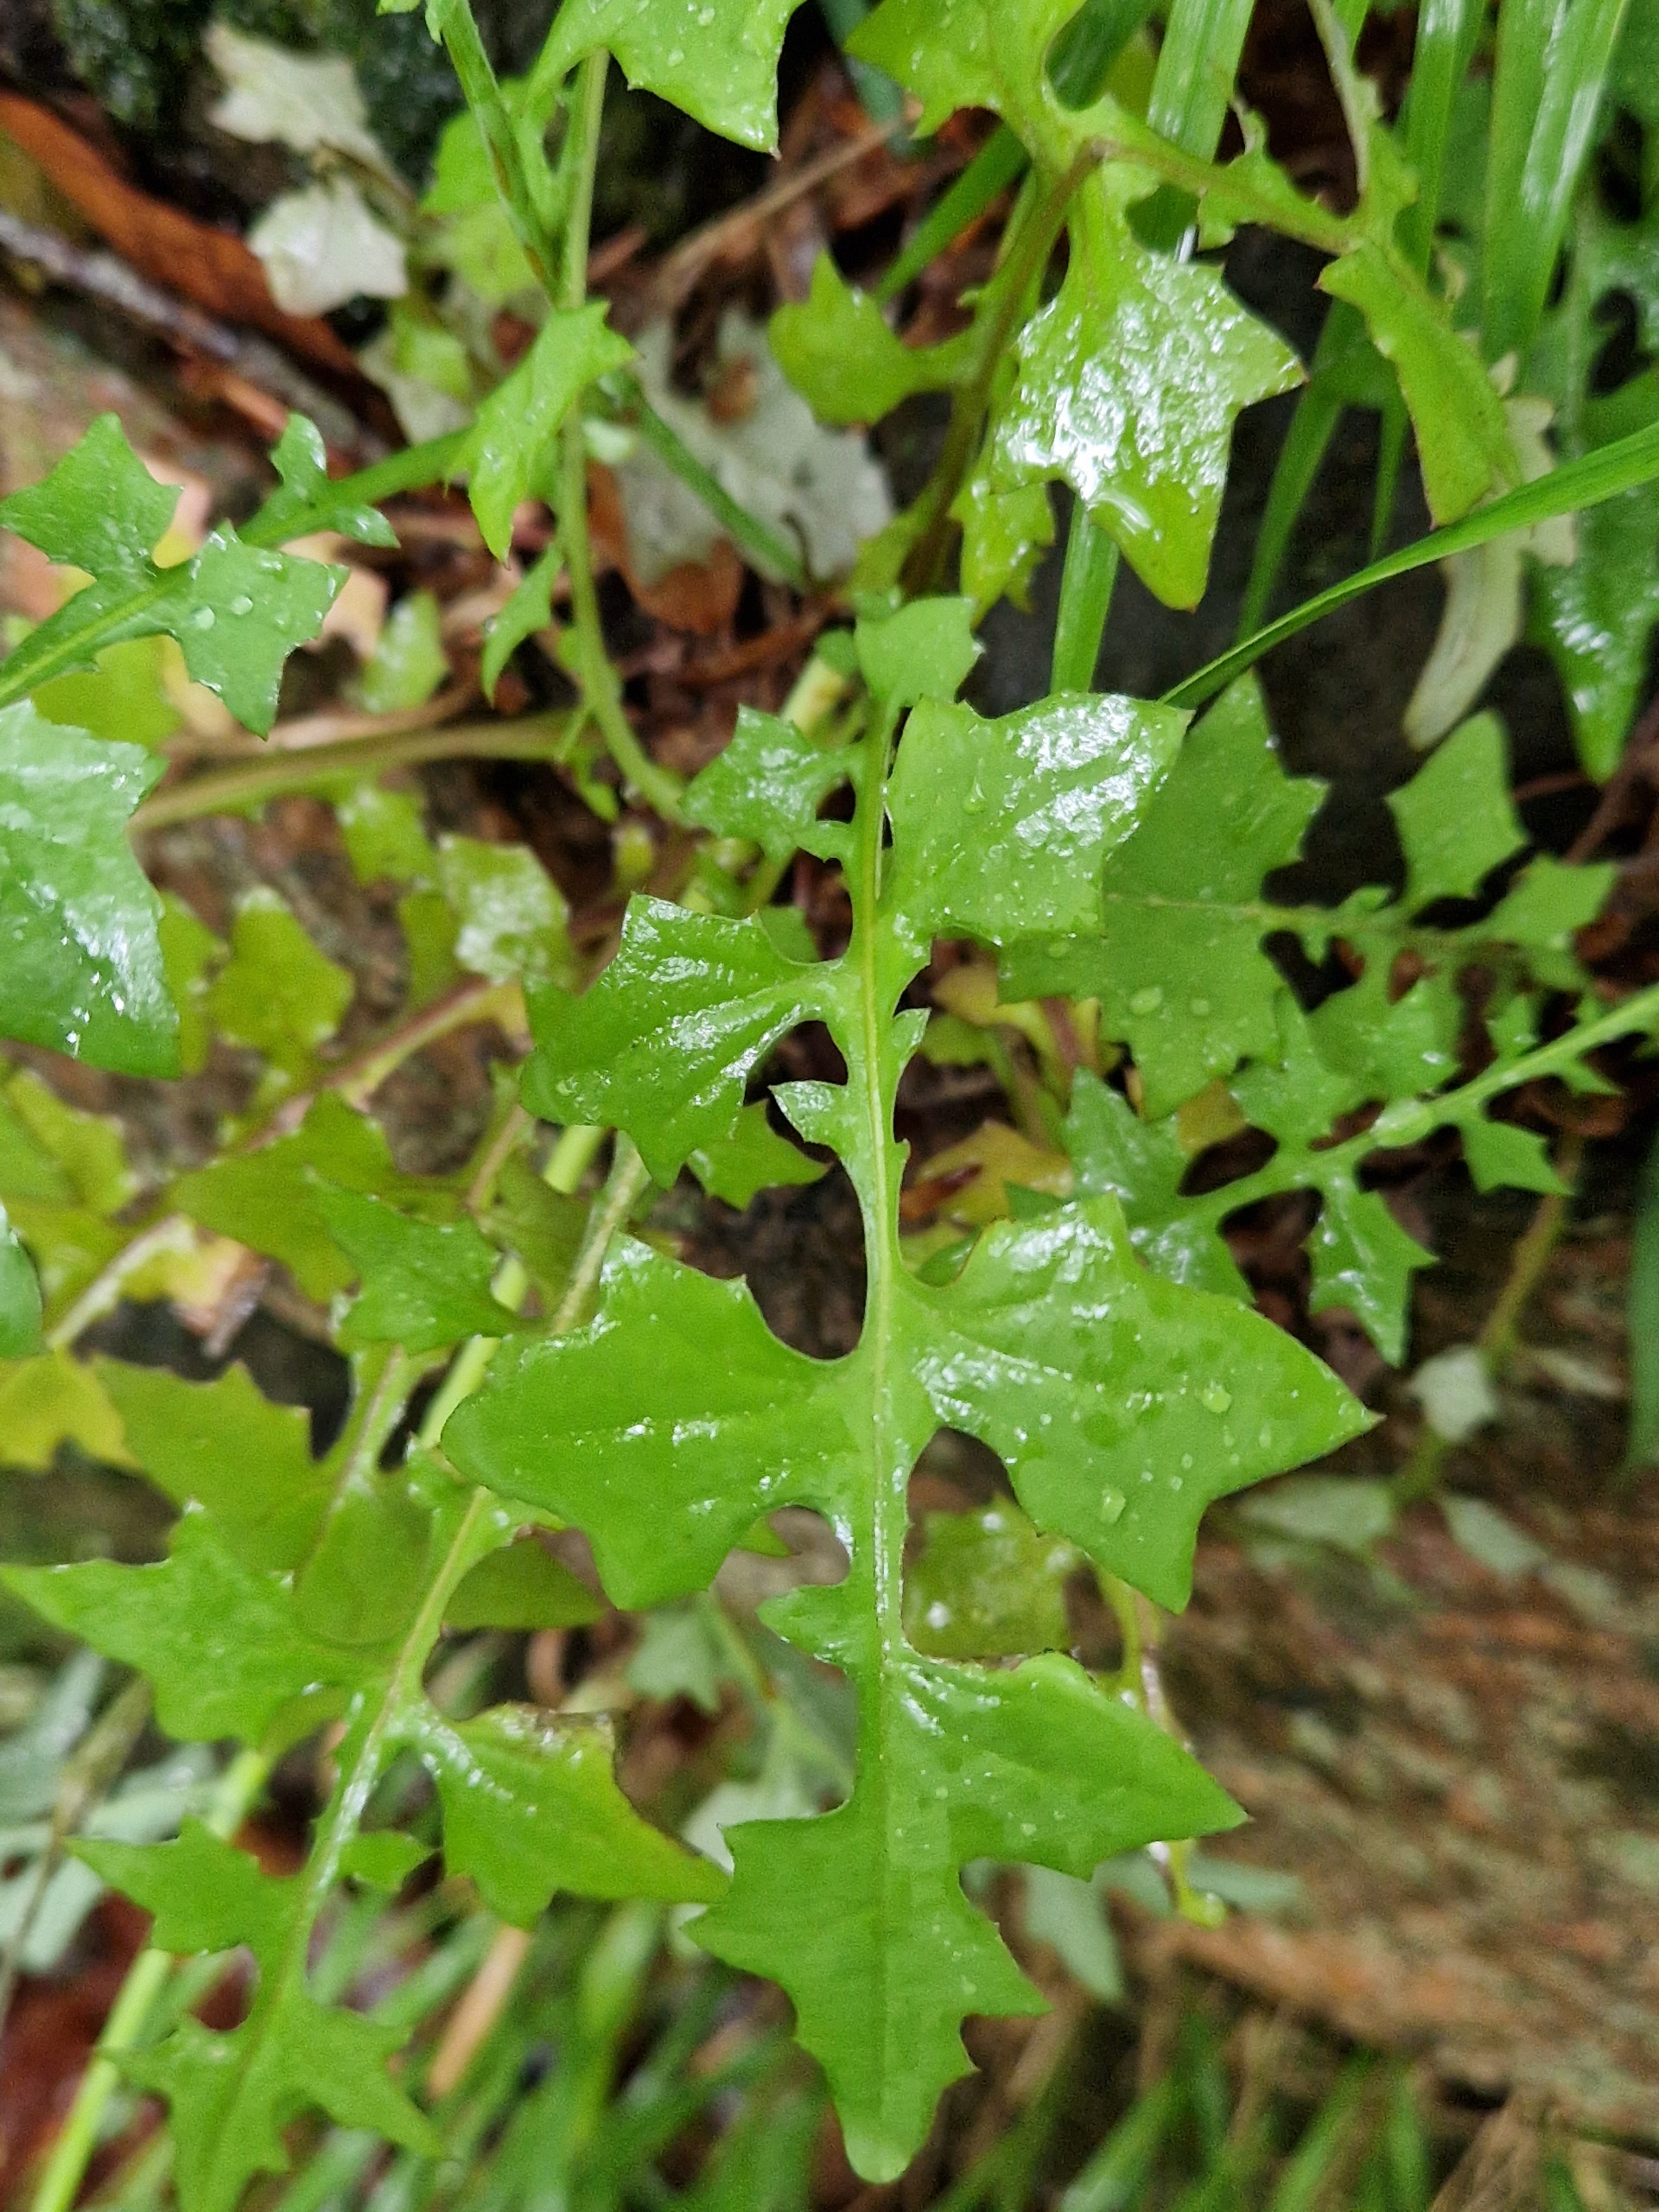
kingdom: Plantae
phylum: Tracheophyta
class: Magnoliopsida
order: Asterales
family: Asteraceae
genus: Mycelis
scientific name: Mycelis muralis
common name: Skov-salat
